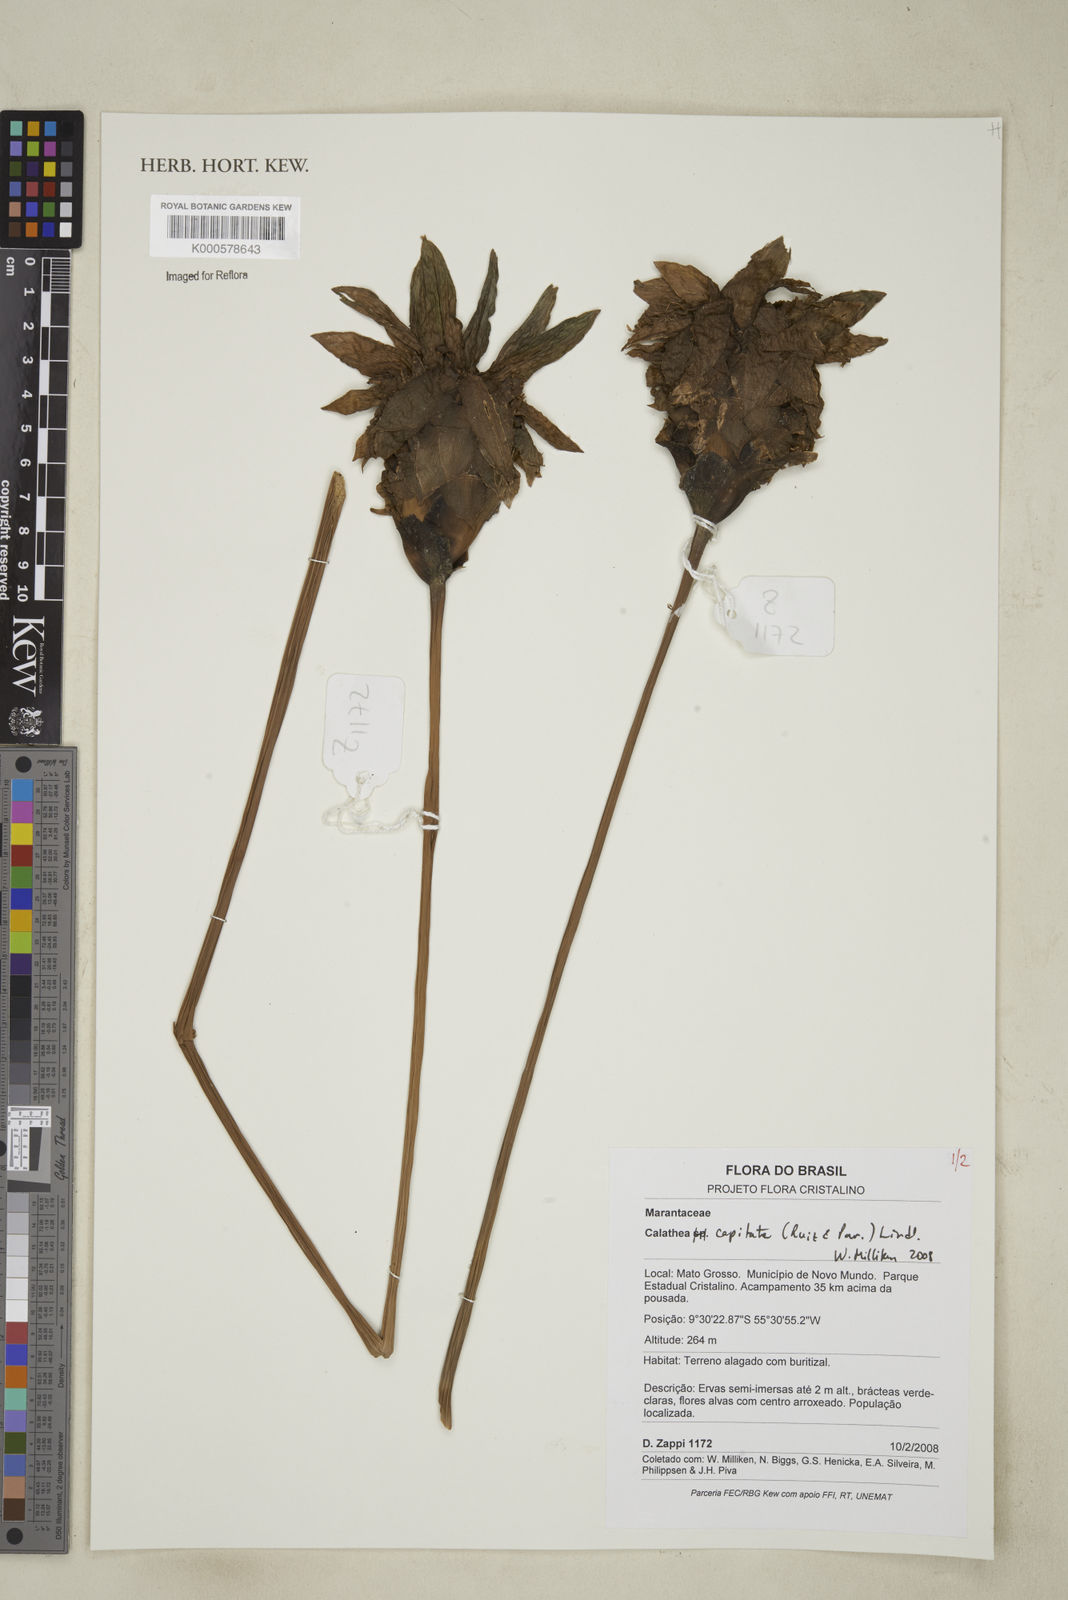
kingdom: Plantae
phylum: Tracheophyta
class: Liliopsida
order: Zingiberales
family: Marantaceae
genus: Goeppertia
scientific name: Goeppertia capitata
